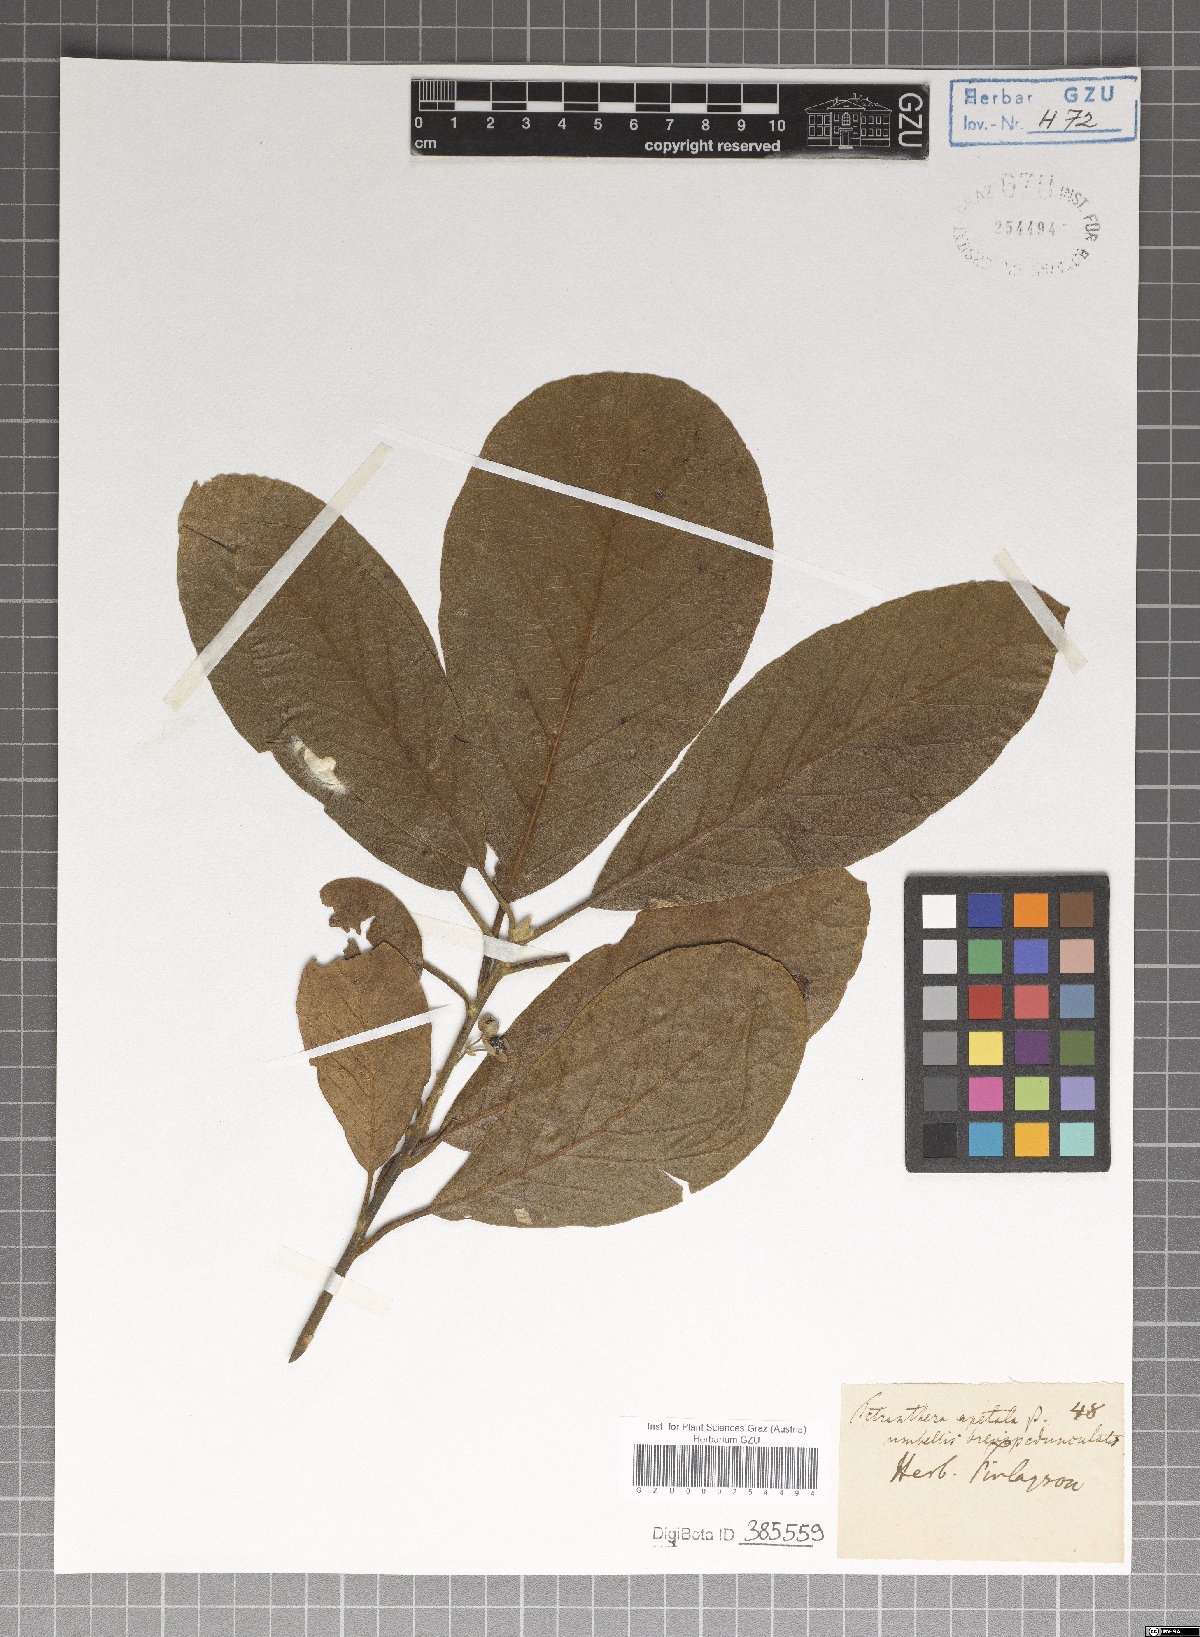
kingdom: Plantae
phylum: Tracheophyta
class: Magnoliopsida
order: Laurales
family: Lauraceae
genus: Litsea
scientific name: Litsea glutinosa
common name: Indian-laurel
